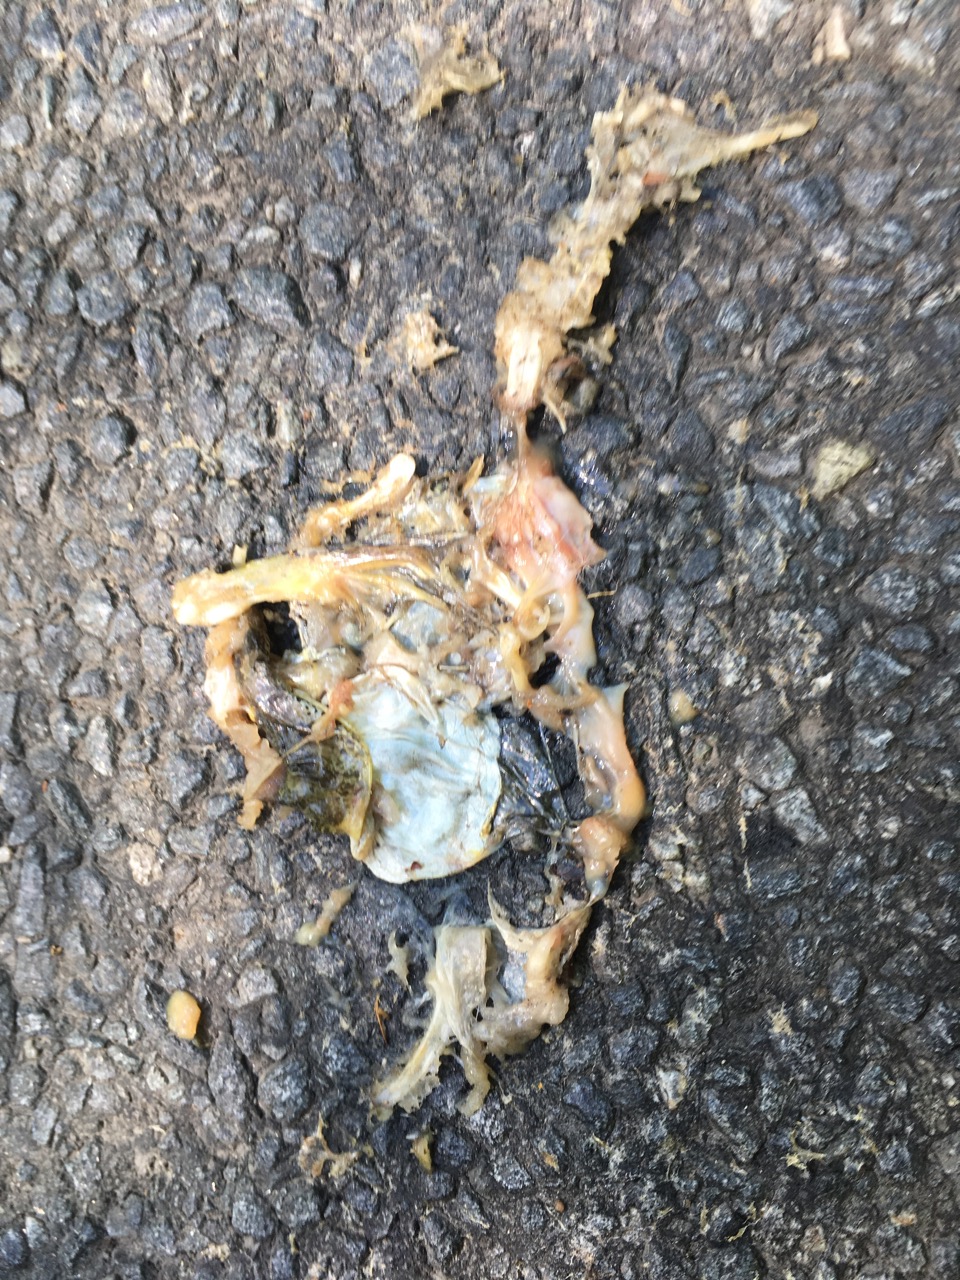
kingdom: Animalia
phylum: Chordata
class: Amphibia
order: Anura
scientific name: Anura
